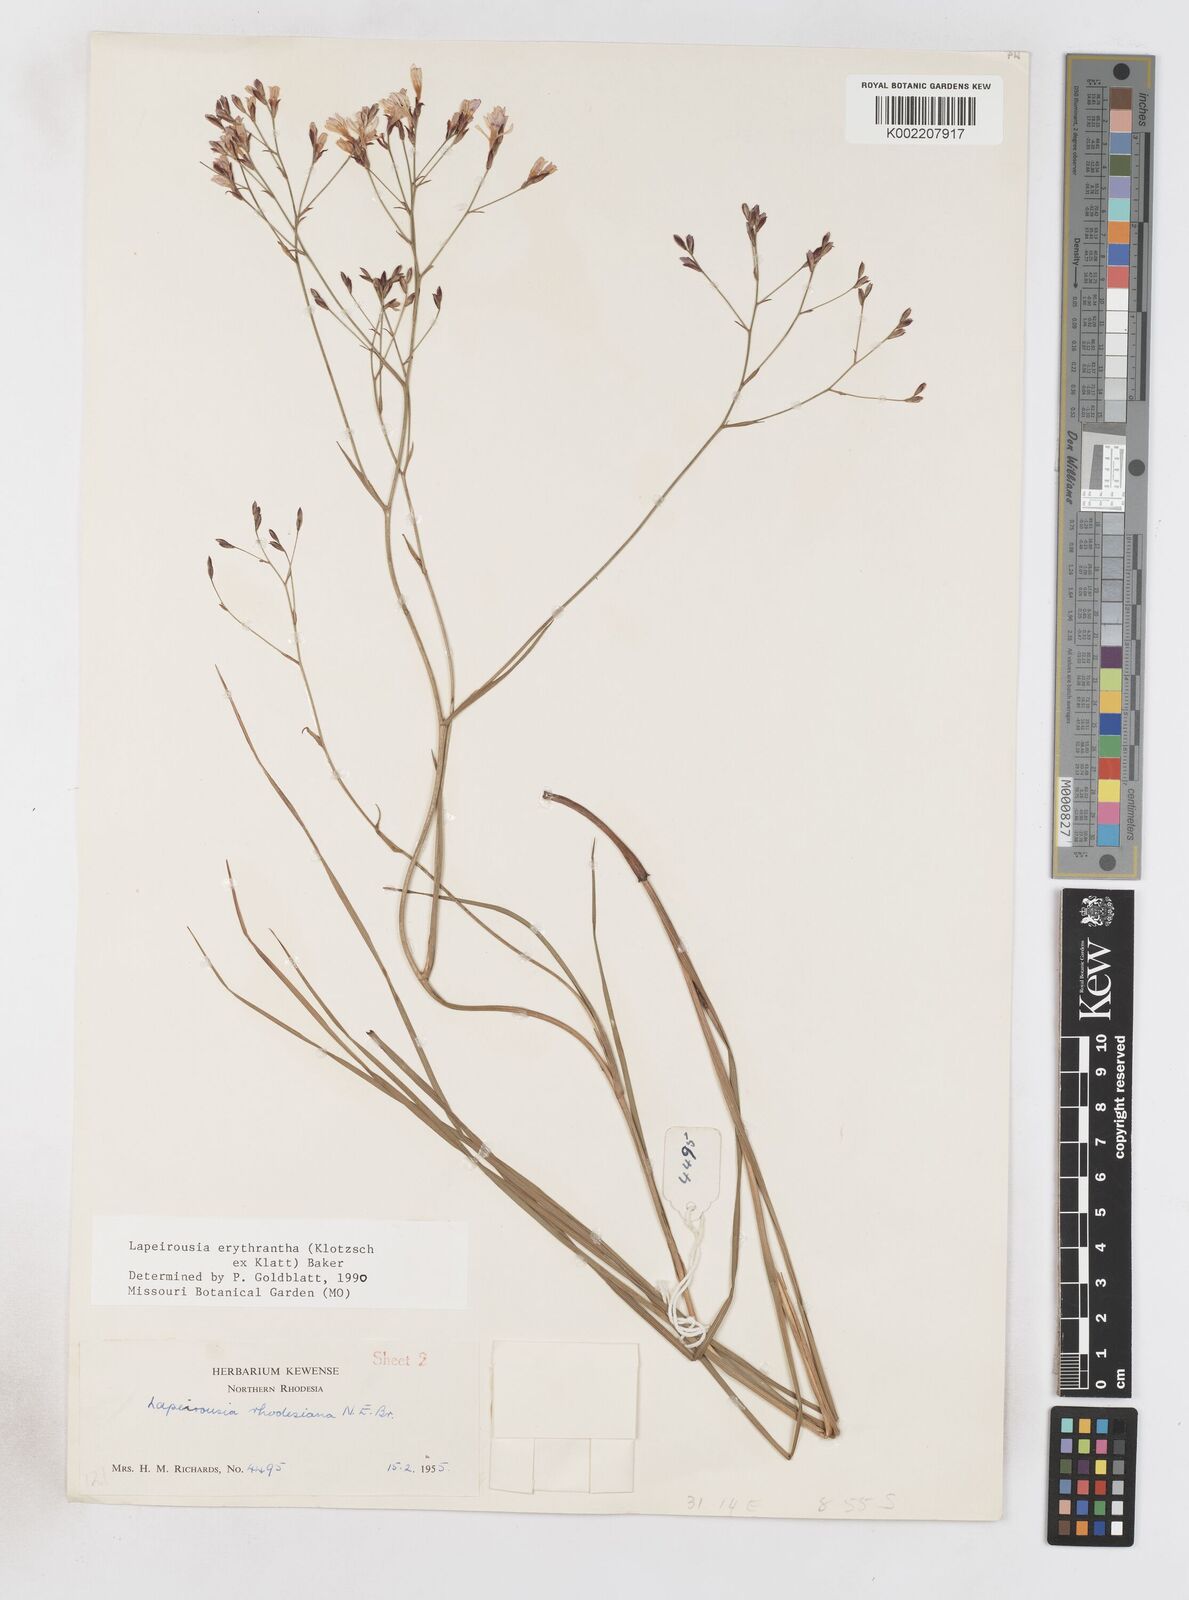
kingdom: Plantae
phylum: Tracheophyta
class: Liliopsida
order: Asparagales
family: Iridaceae
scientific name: Iridaceae
